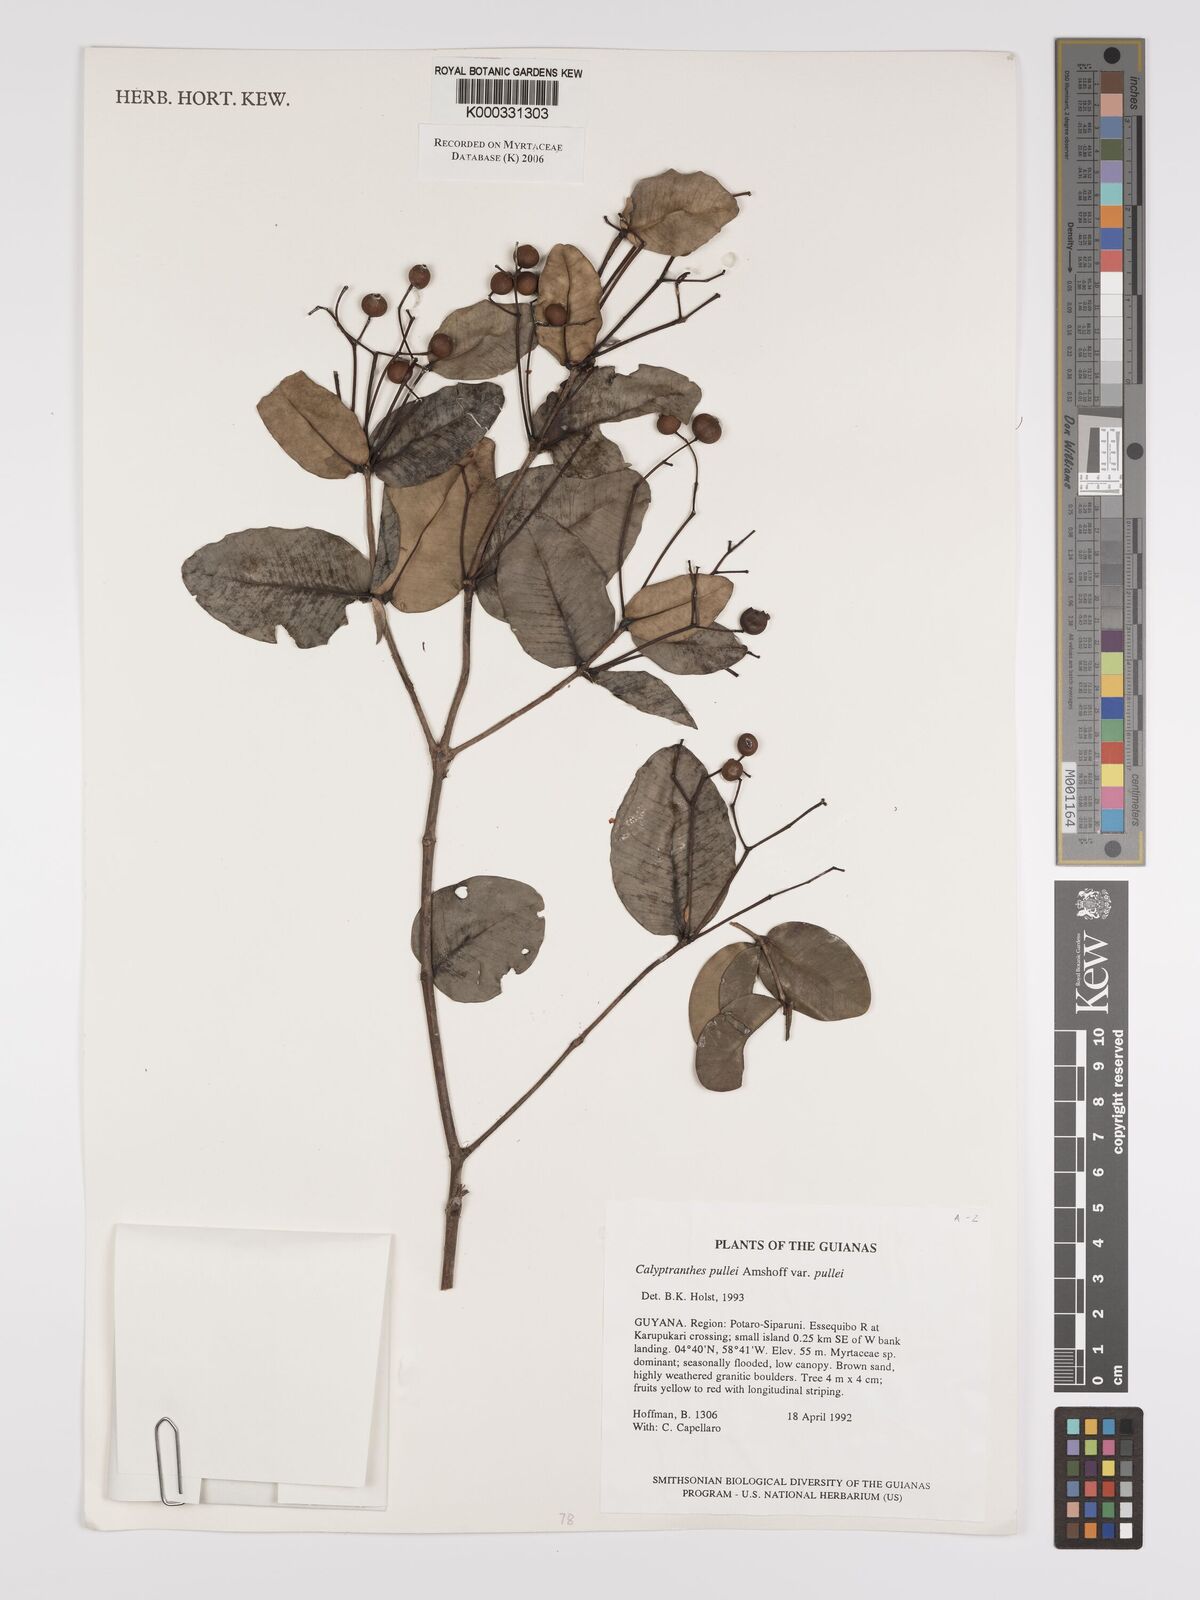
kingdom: Plantae
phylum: Tracheophyta
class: Magnoliopsida
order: Myrtales
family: Myrtaceae
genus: Myrcia
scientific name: Myrcia pullei
